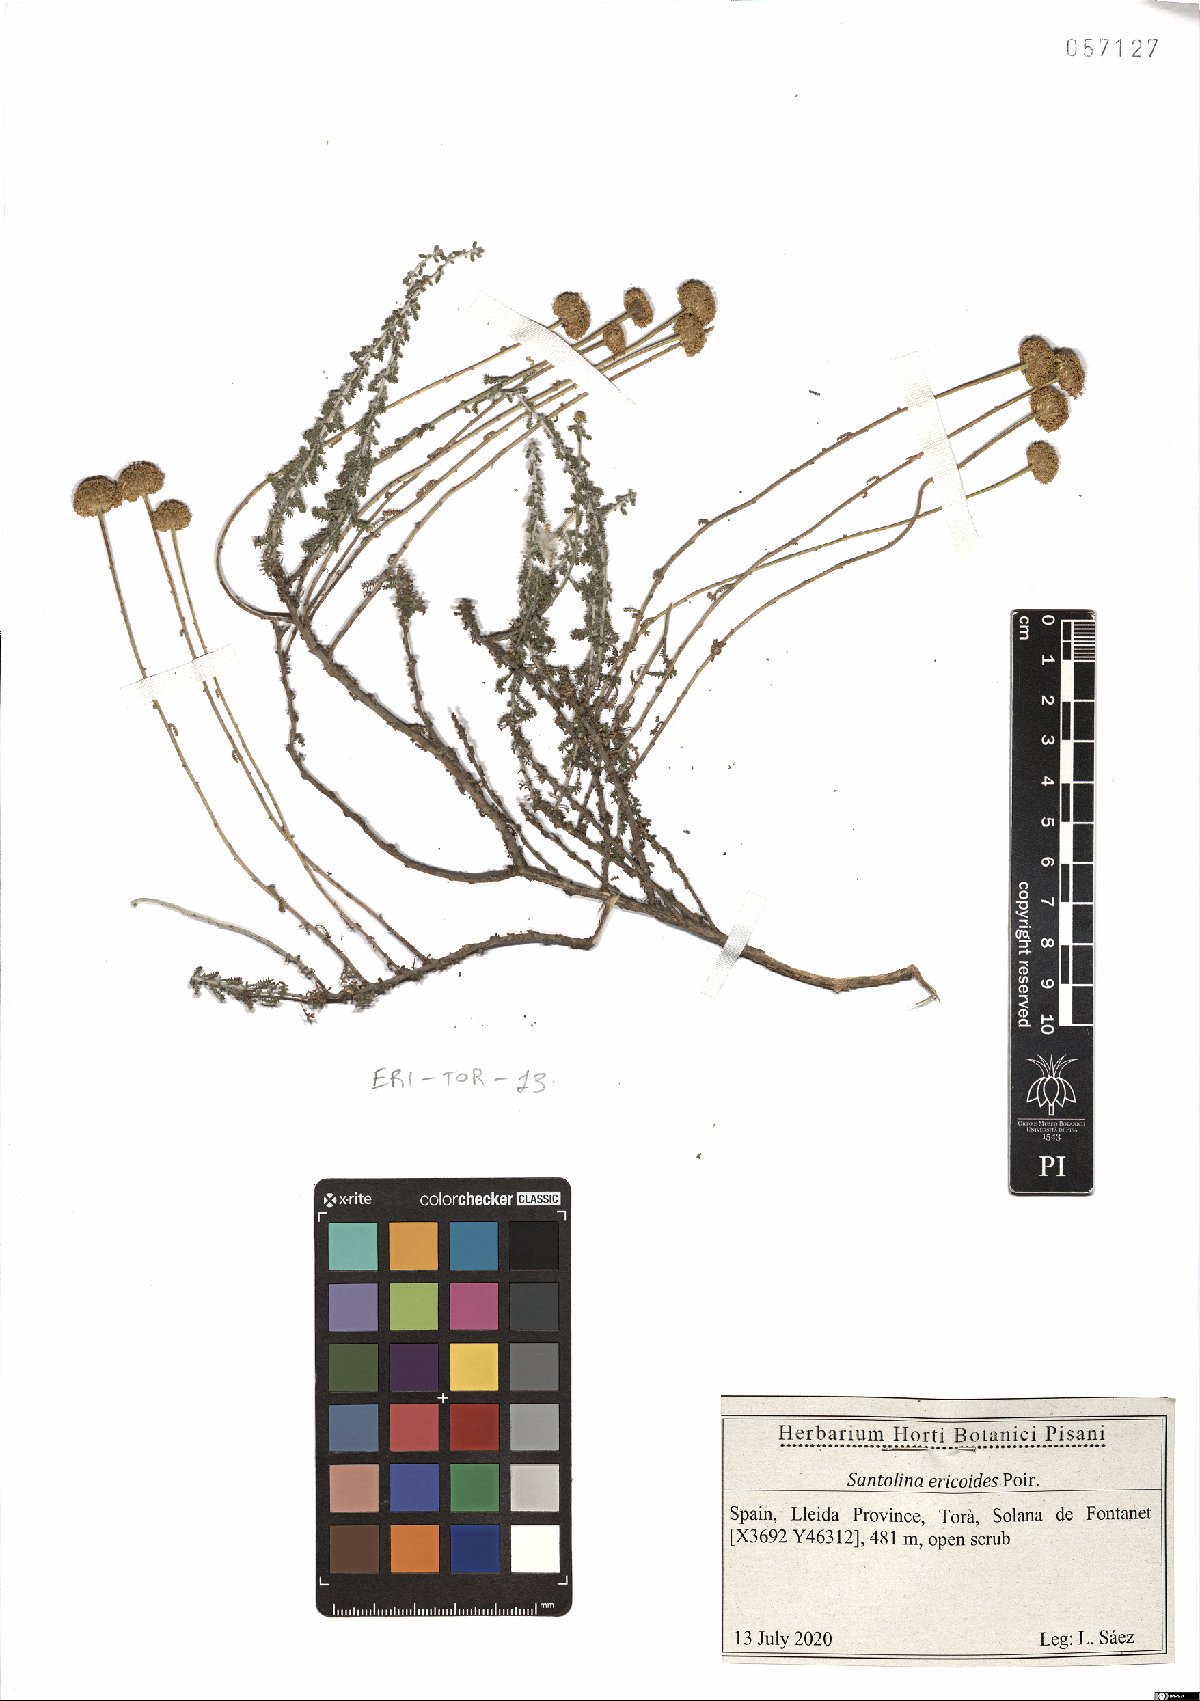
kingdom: Plantae
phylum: Tracheophyta
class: Magnoliopsida
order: Asterales
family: Asteraceae
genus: Santolina
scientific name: Santolina ericoides
